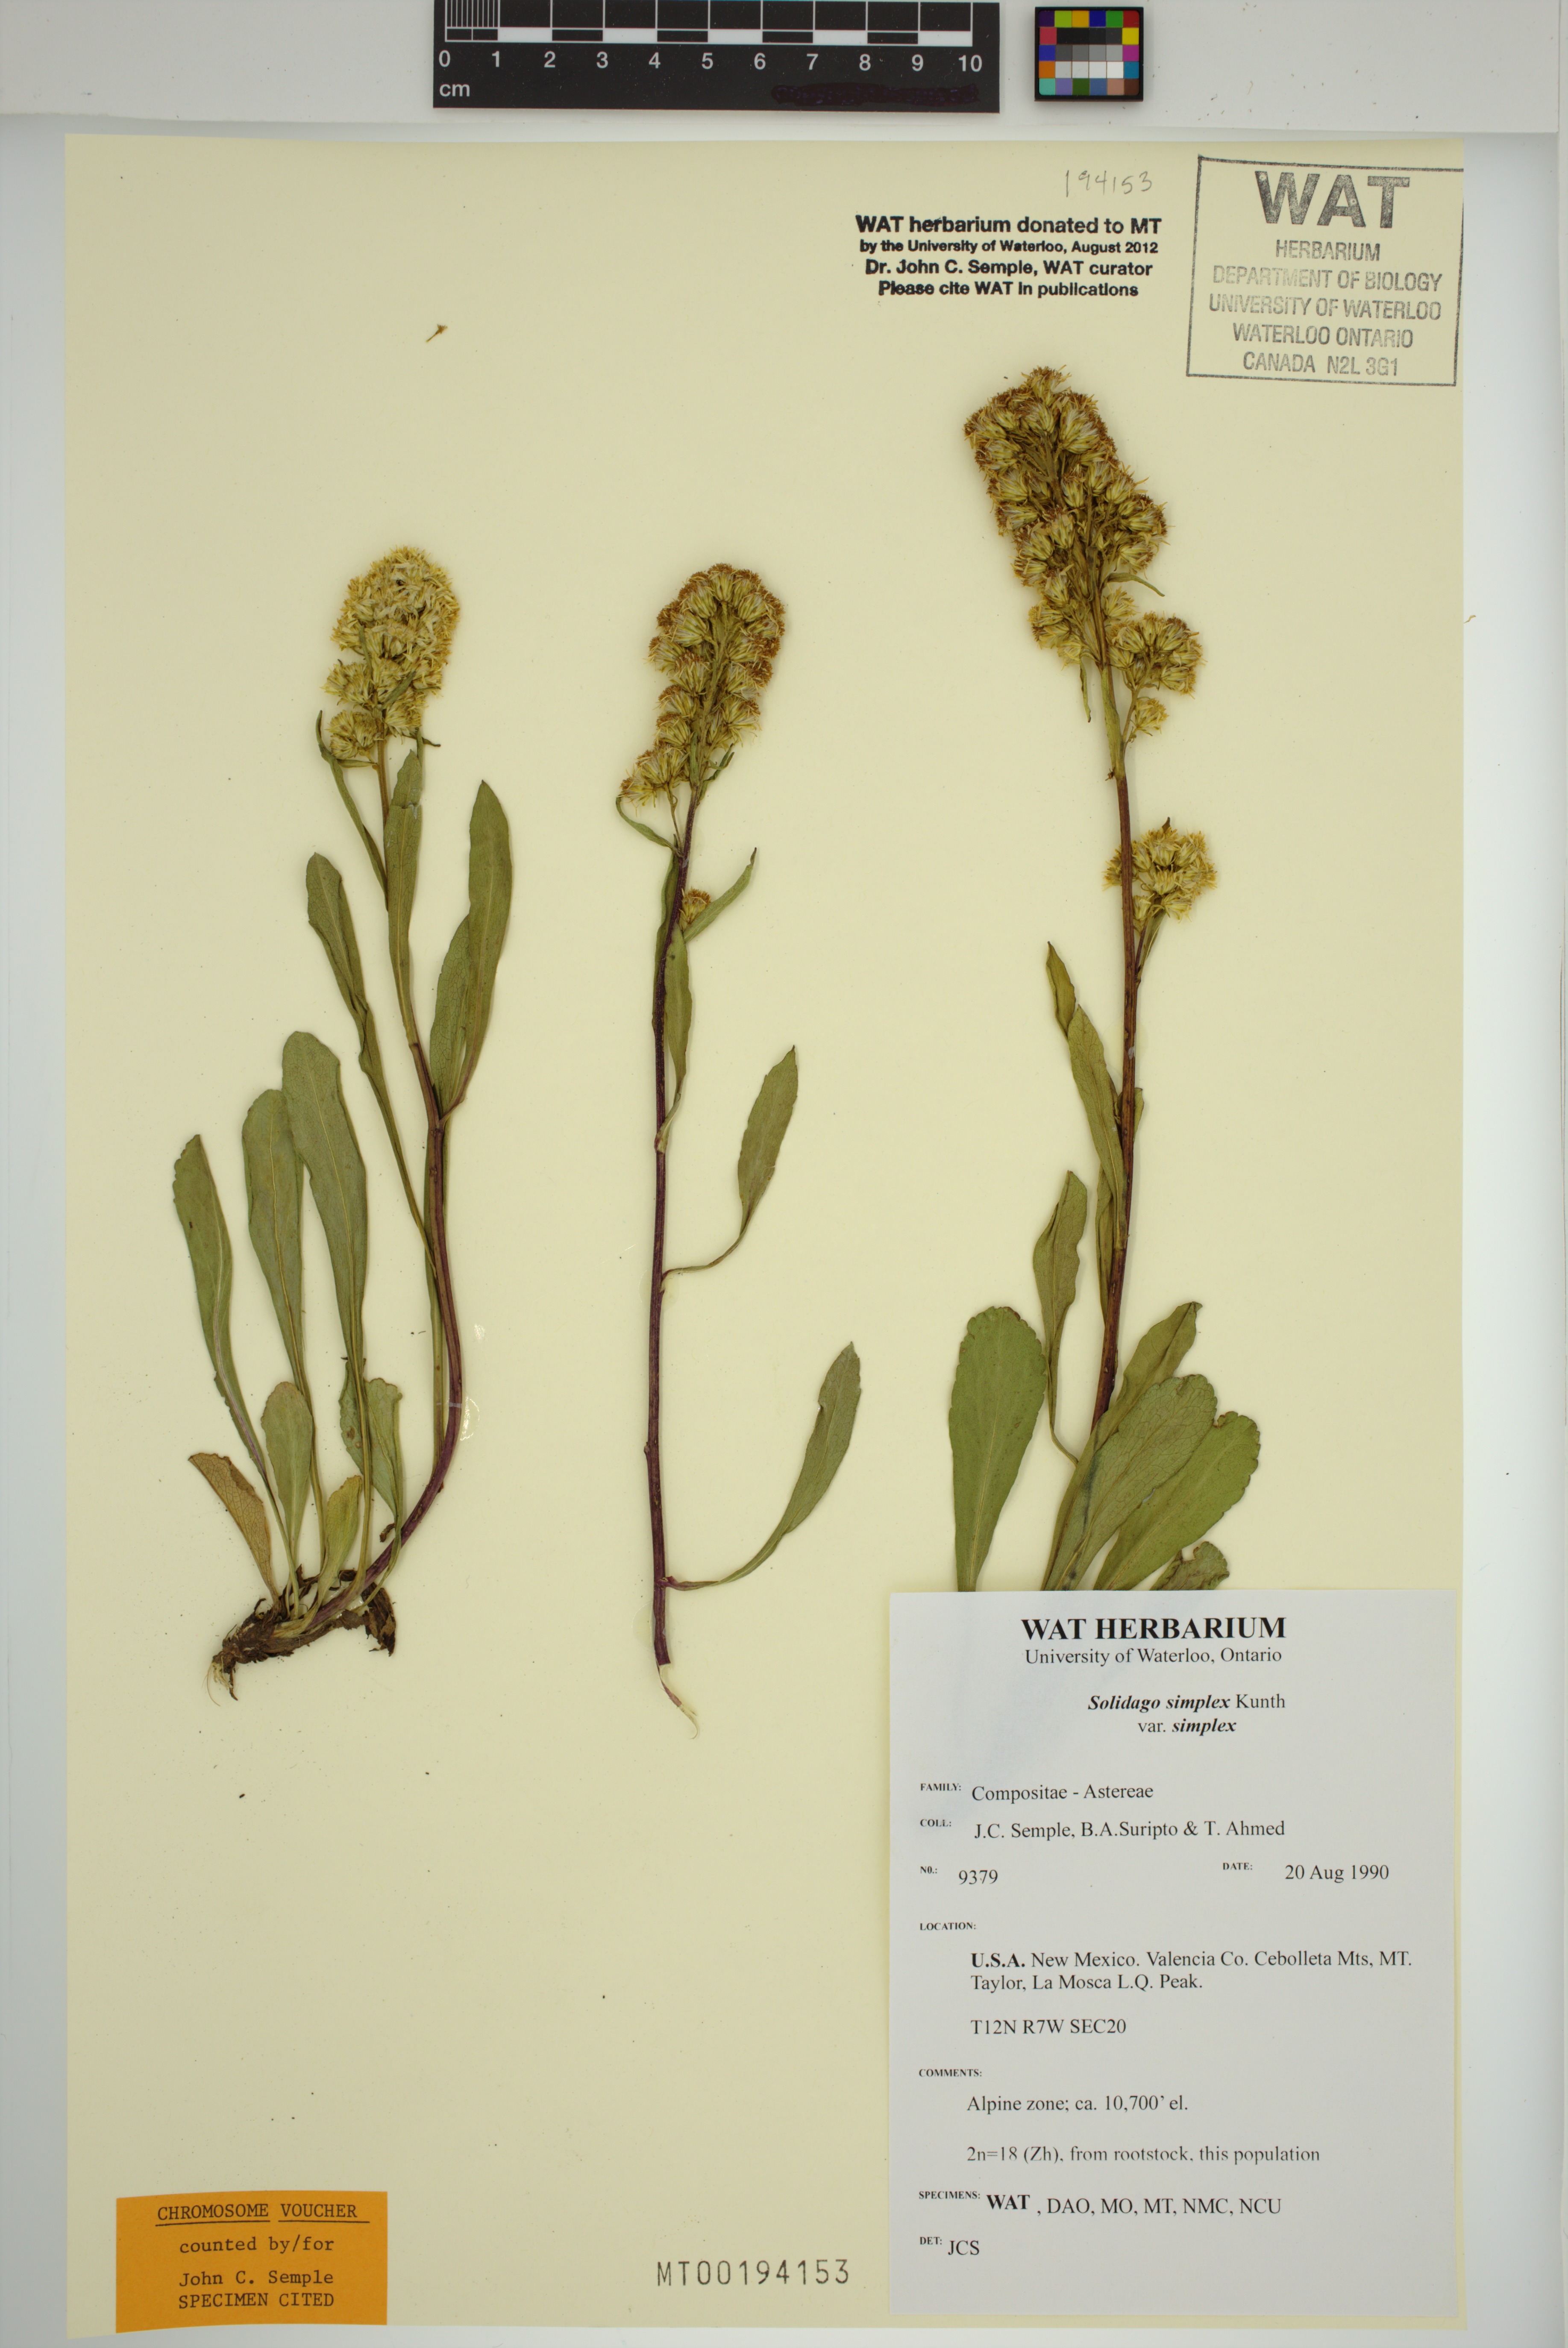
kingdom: Plantae
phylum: Tracheophyta
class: Magnoliopsida
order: Asterales
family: Asteraceae
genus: Solidago
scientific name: Solidago glutinosa
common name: Decumbent goldenrod
